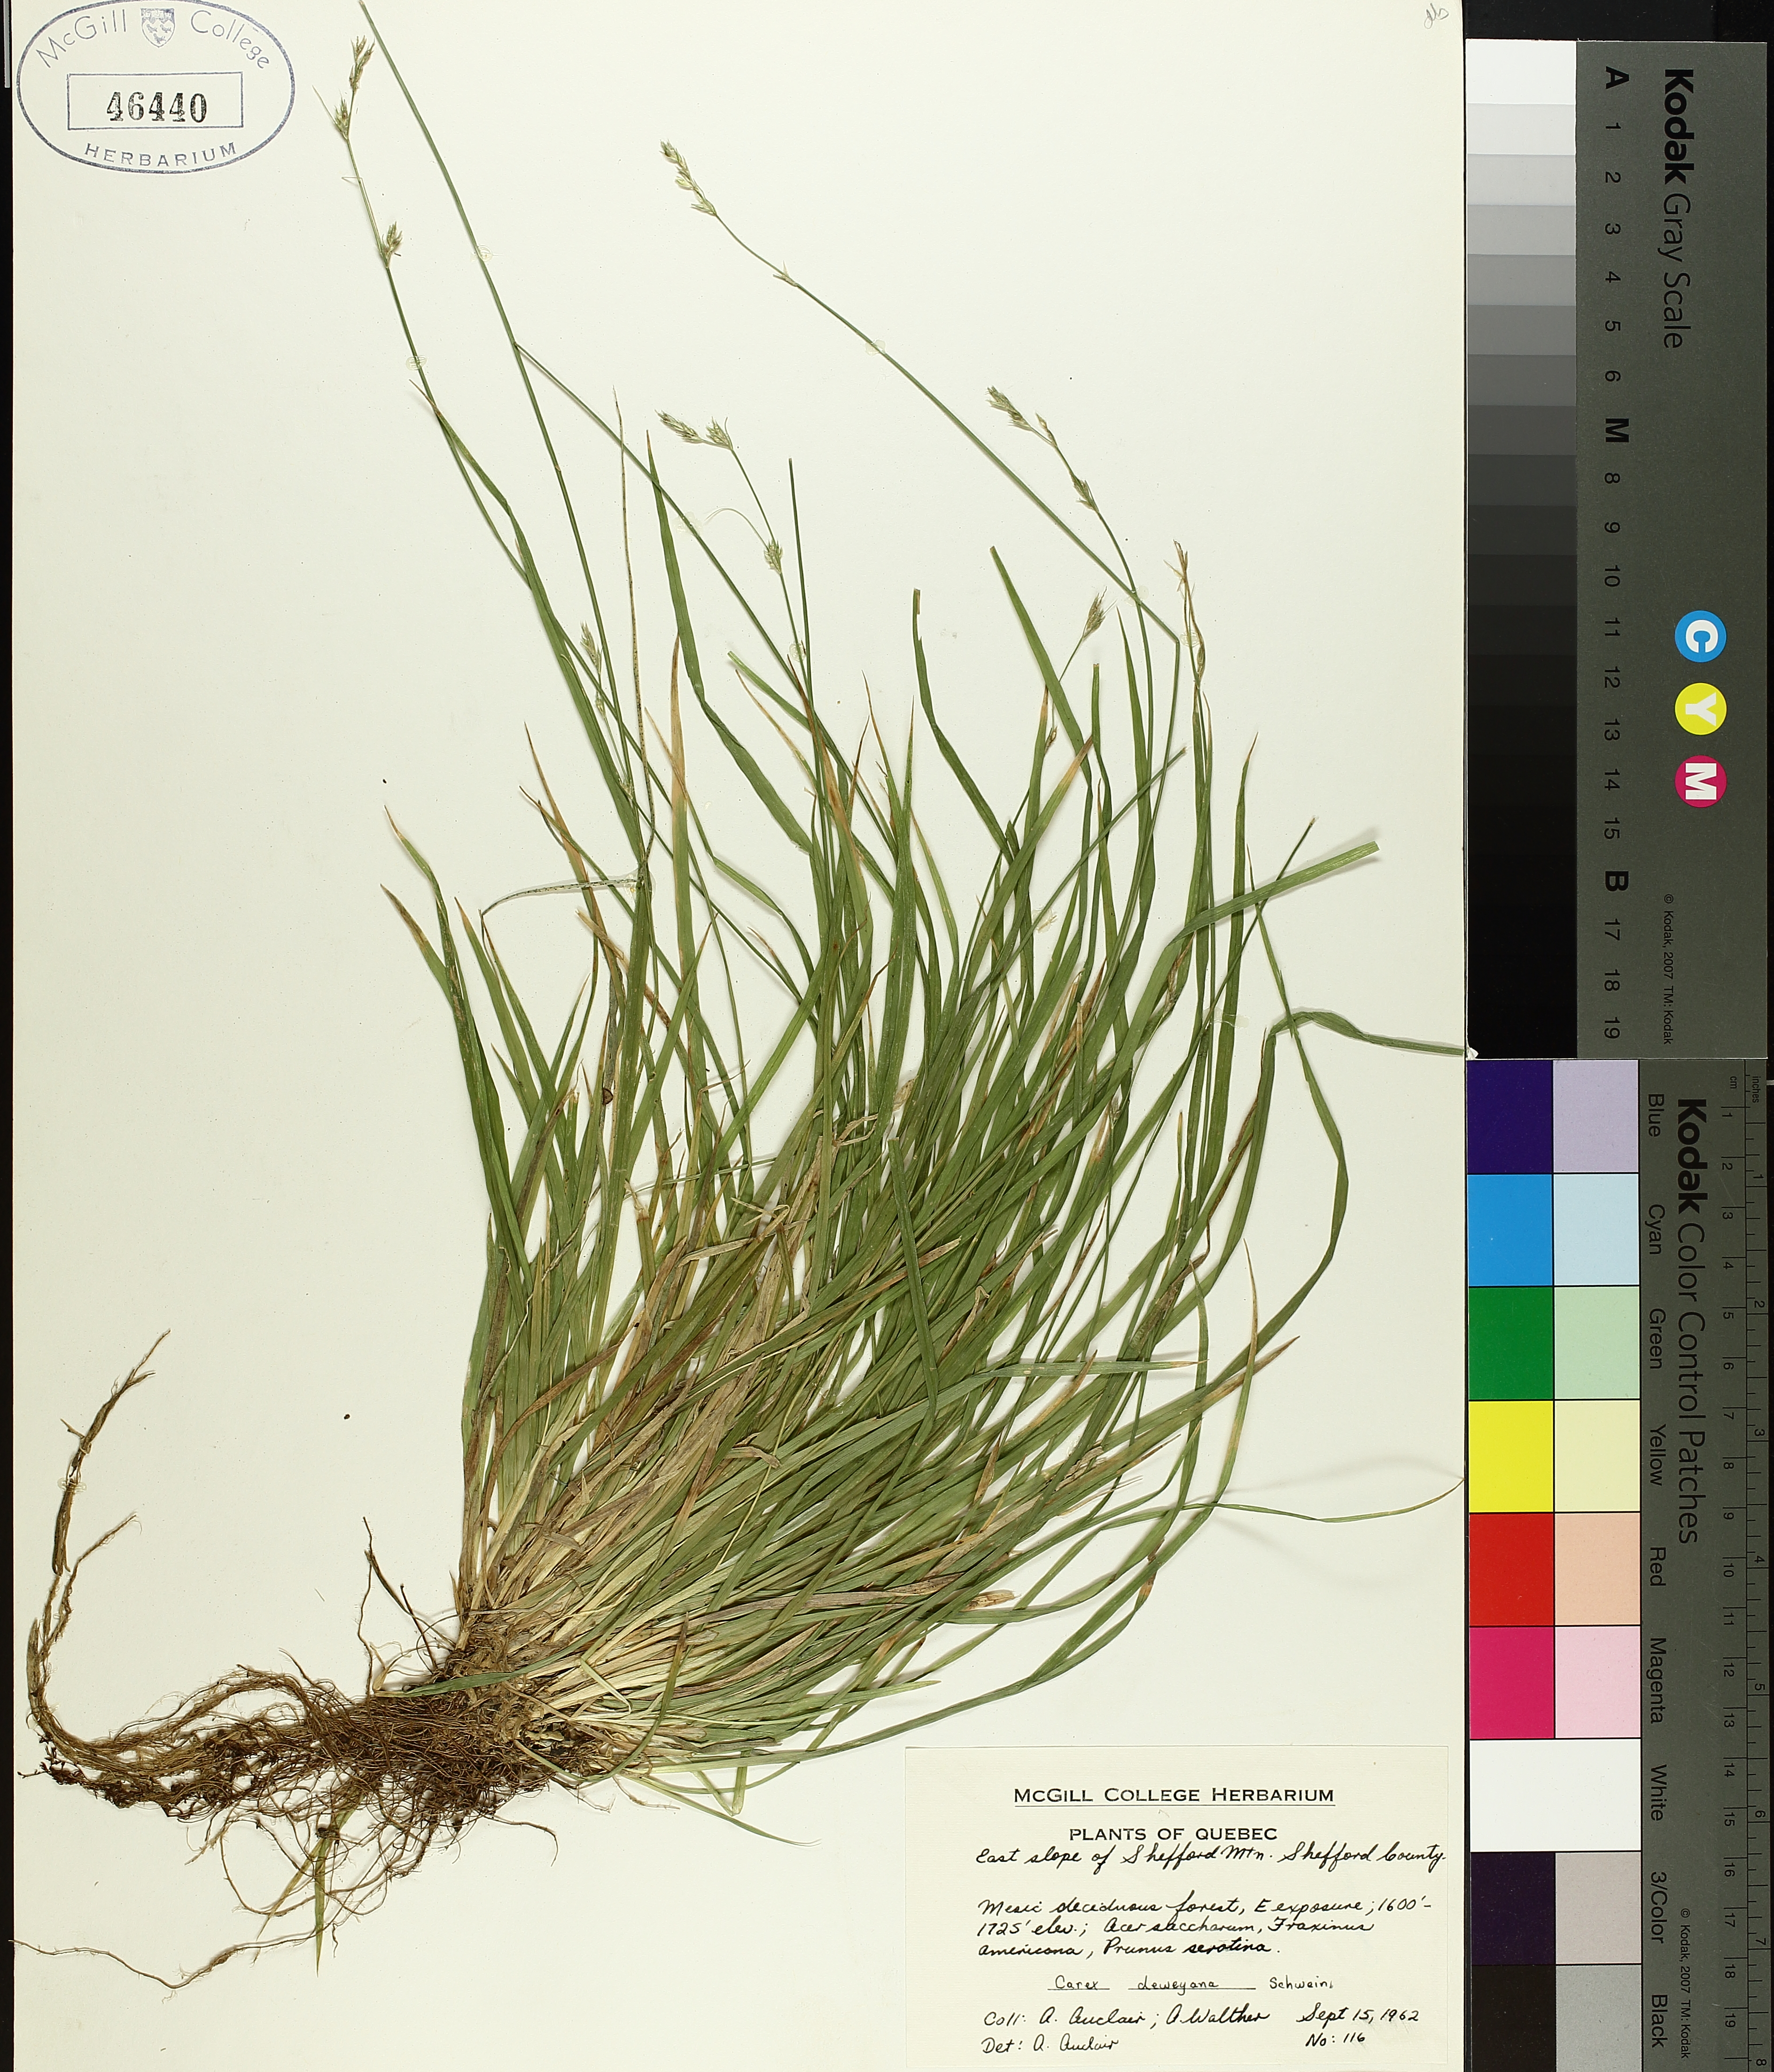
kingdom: Plantae
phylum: Tracheophyta
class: Liliopsida
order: Poales
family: Cyperaceae
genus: Carex
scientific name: Carex deweyana
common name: Dewey's sedge
